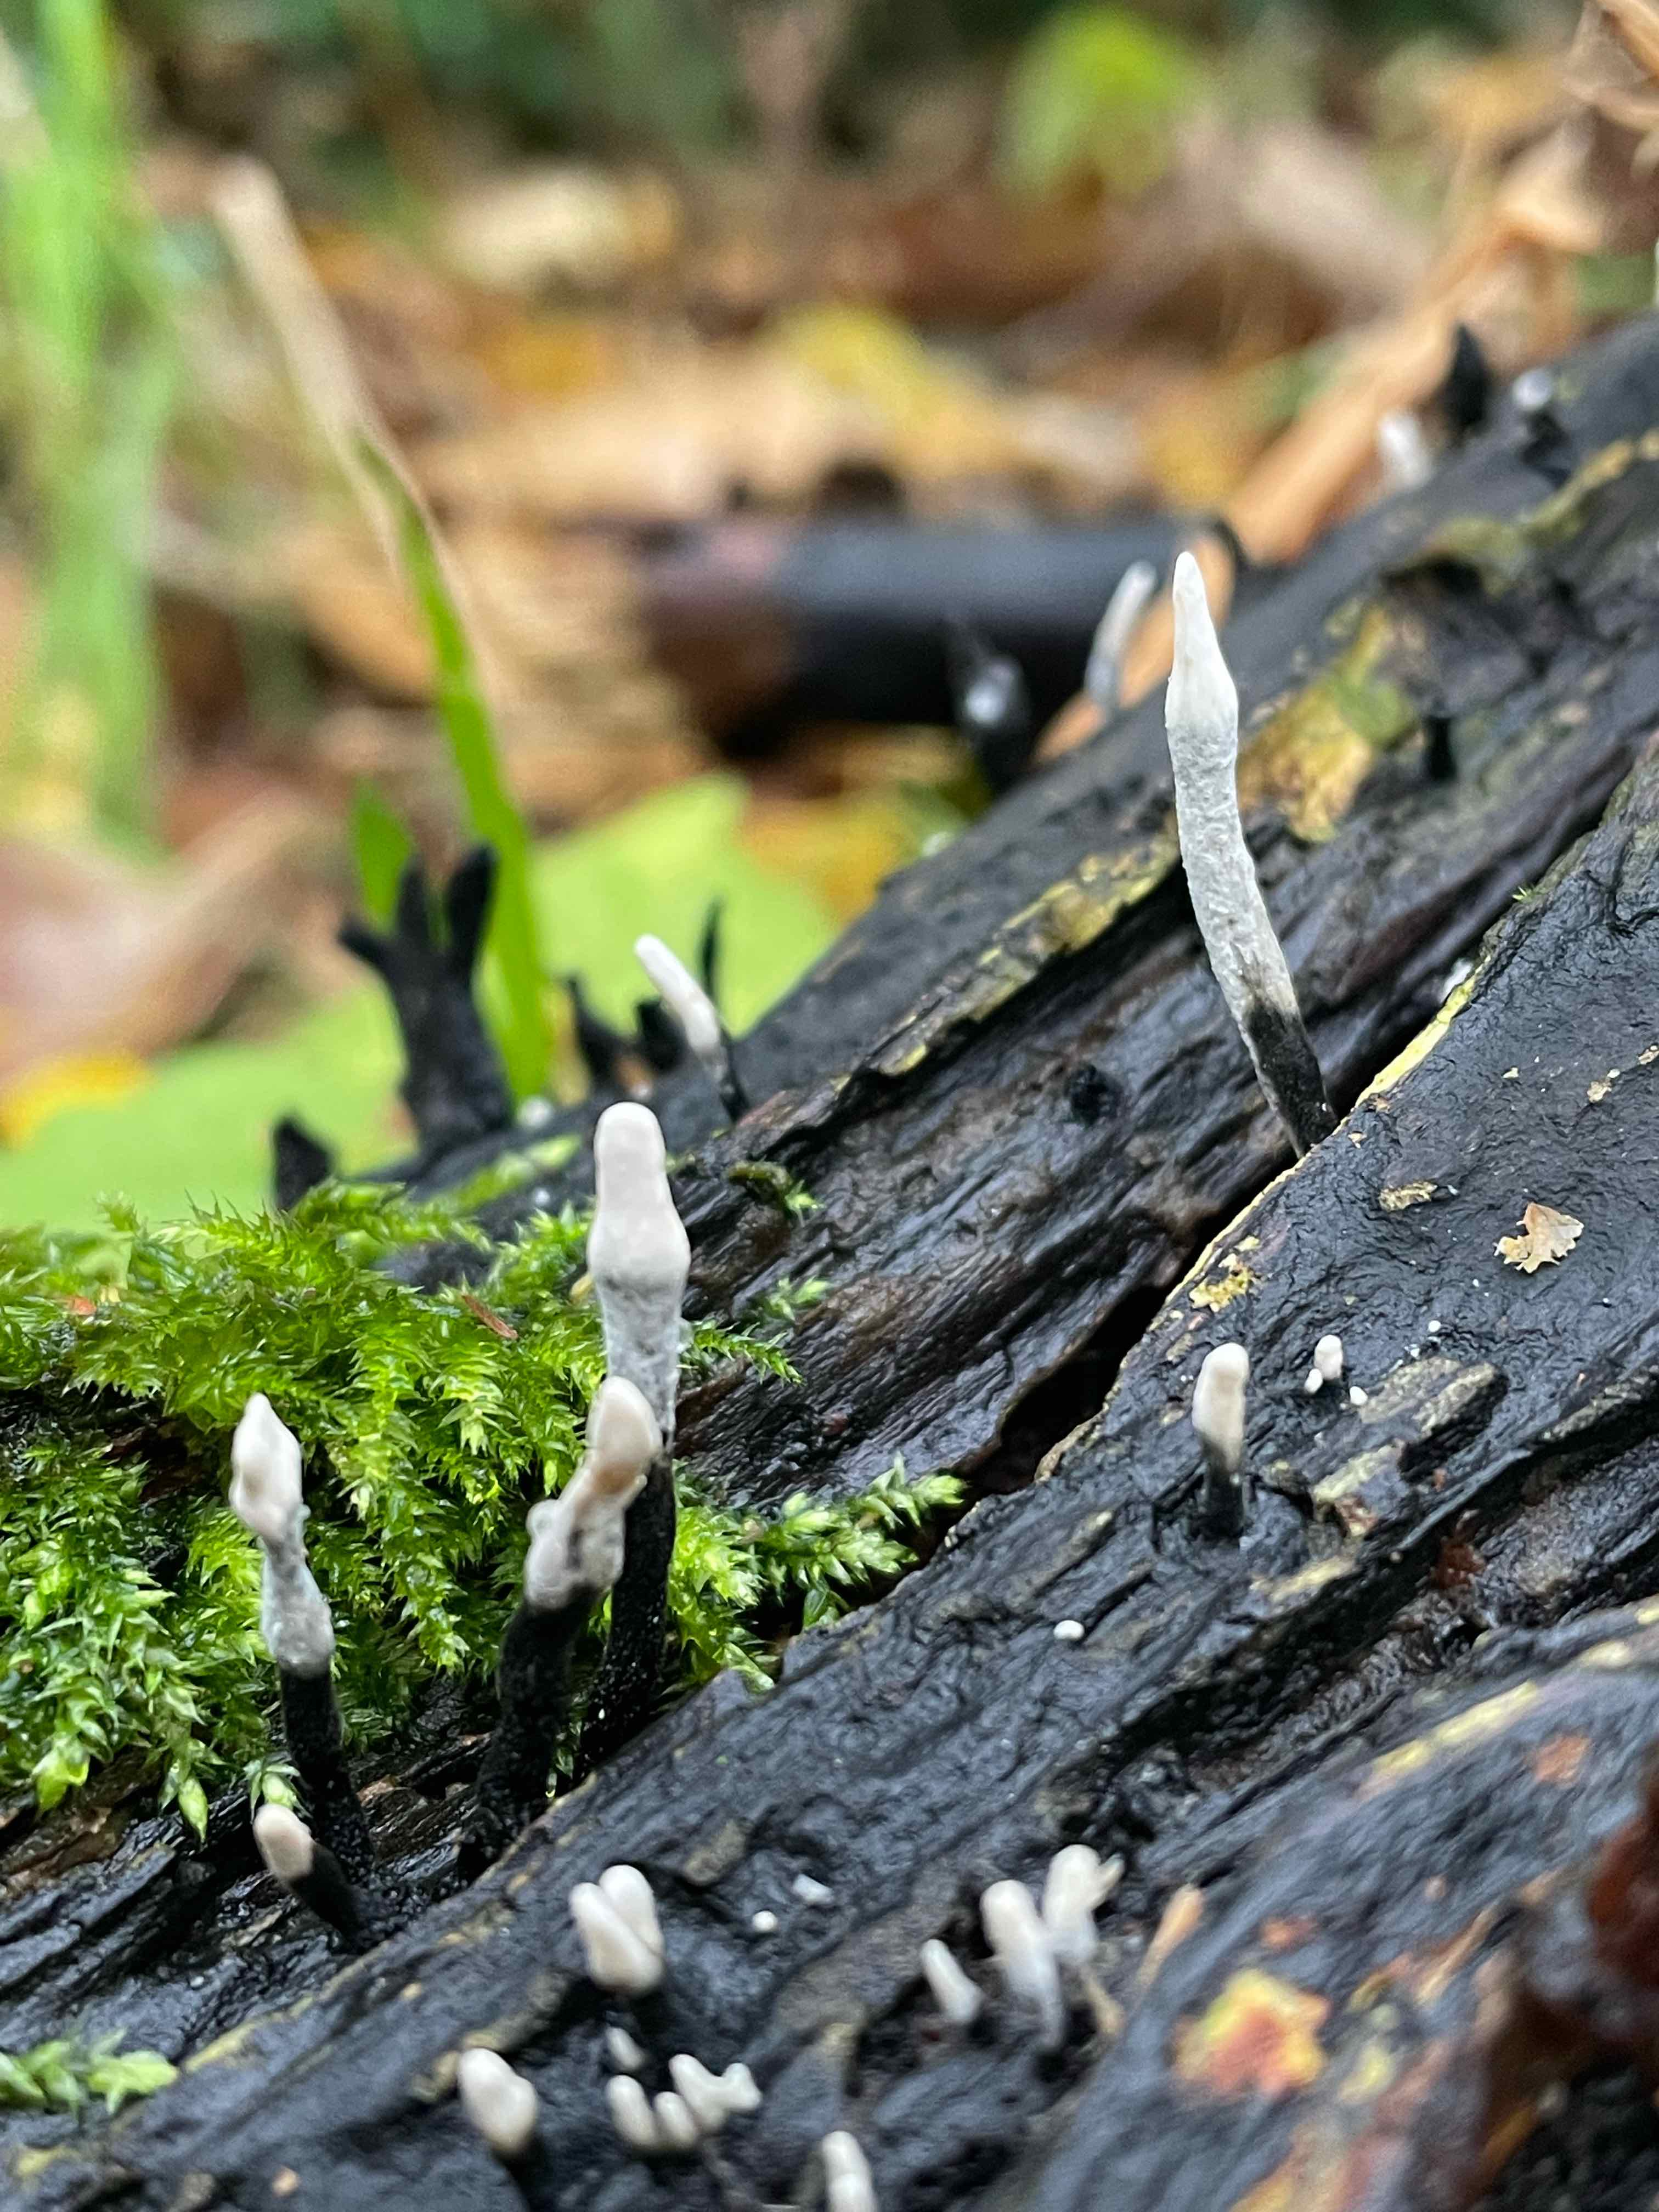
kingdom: Fungi
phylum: Ascomycota
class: Sordariomycetes
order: Xylariales
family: Xylariaceae
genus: Xylaria
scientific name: Xylaria hypoxylon
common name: grenet stødsvamp
